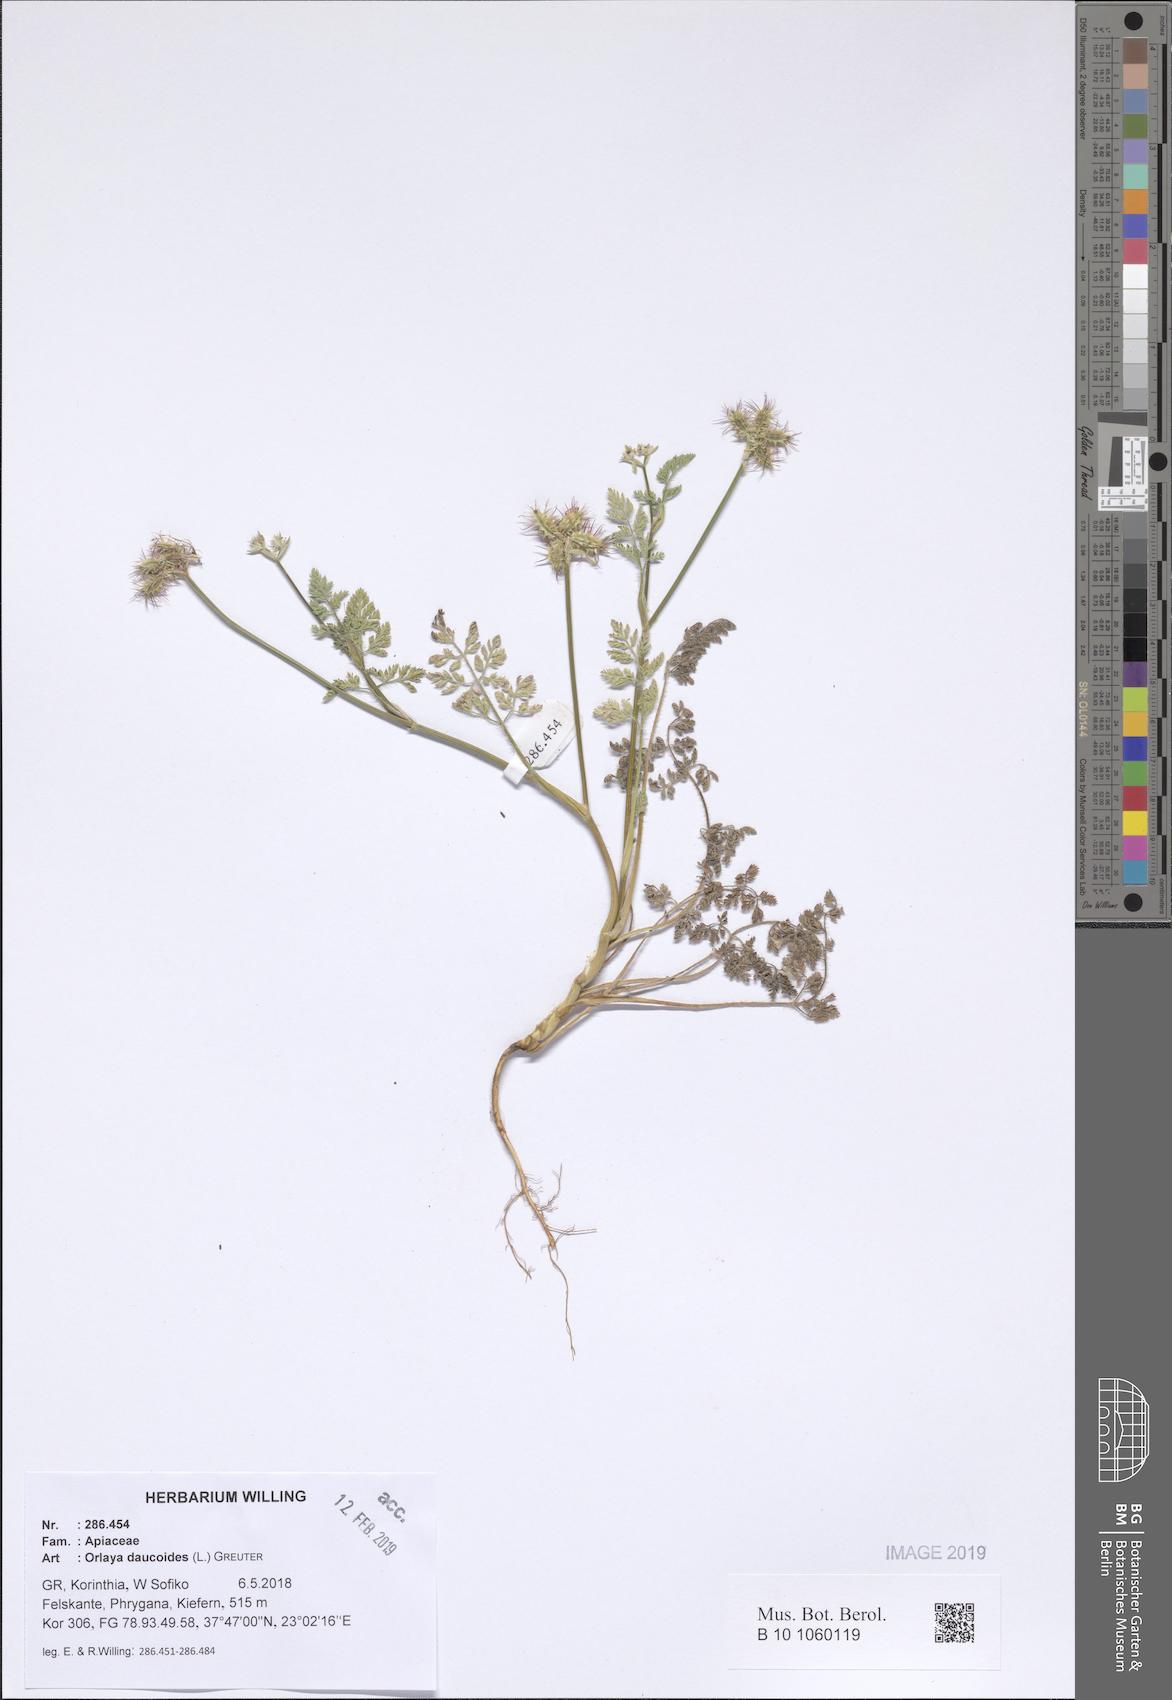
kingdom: Plantae
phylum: Tracheophyta
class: Magnoliopsida
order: Apiales
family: Apiaceae
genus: Orlaya
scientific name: Orlaya daucoides
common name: Flat-fruit orlaya
